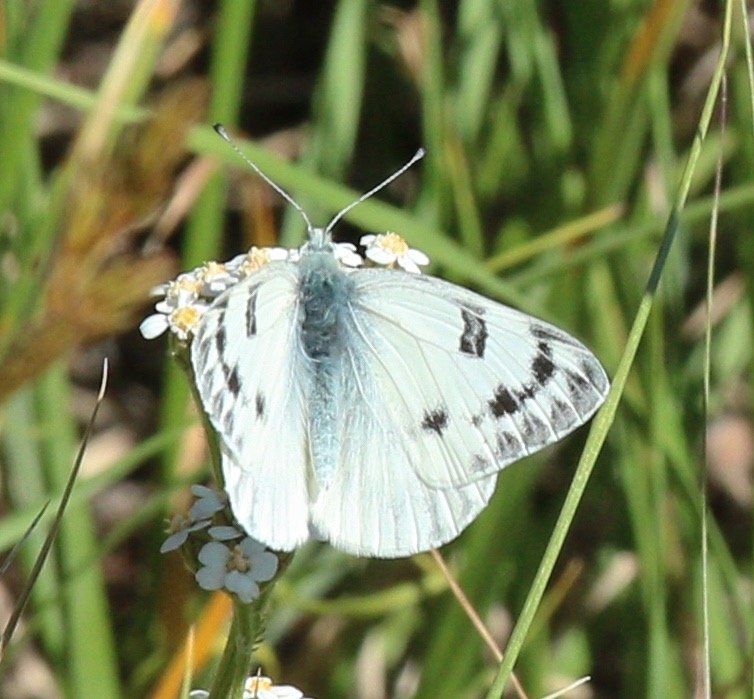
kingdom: Animalia
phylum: Arthropoda
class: Insecta
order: Lepidoptera
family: Pieridae
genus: Pontia
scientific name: Pontia occidentalis
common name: Western White
